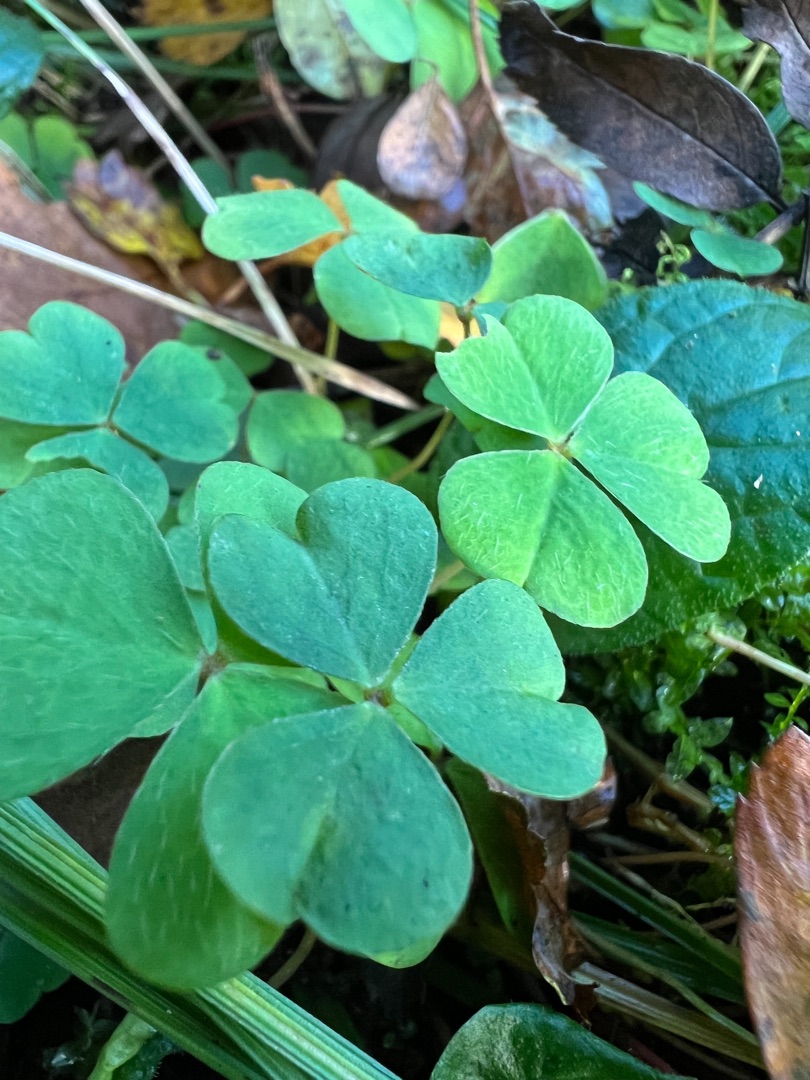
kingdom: Plantae
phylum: Tracheophyta
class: Magnoliopsida
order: Oxalidales
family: Oxalidaceae
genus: Oxalis
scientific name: Oxalis acetosella
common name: Skovsyre
